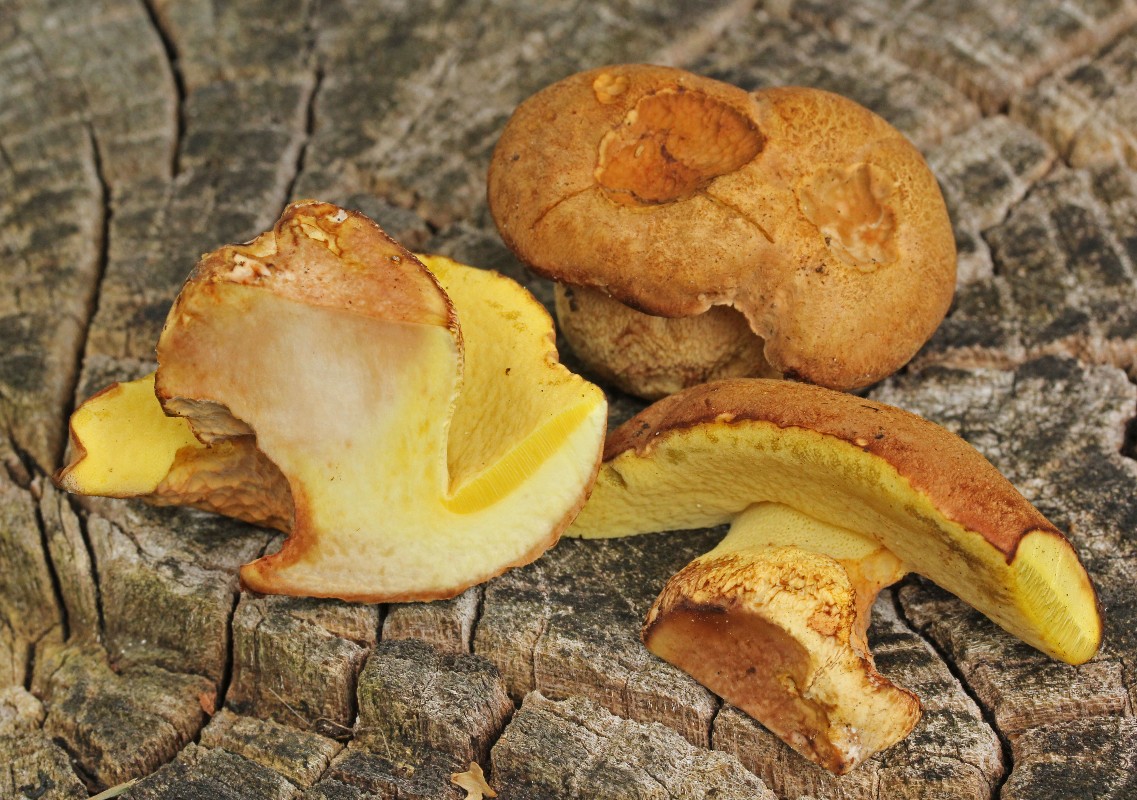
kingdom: Fungi
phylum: Basidiomycota
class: Agaricomycetes
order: Boletales
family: Boletaceae
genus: Butyriboletus
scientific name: Butyriboletus appendiculatus
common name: tenstokket rørhat
